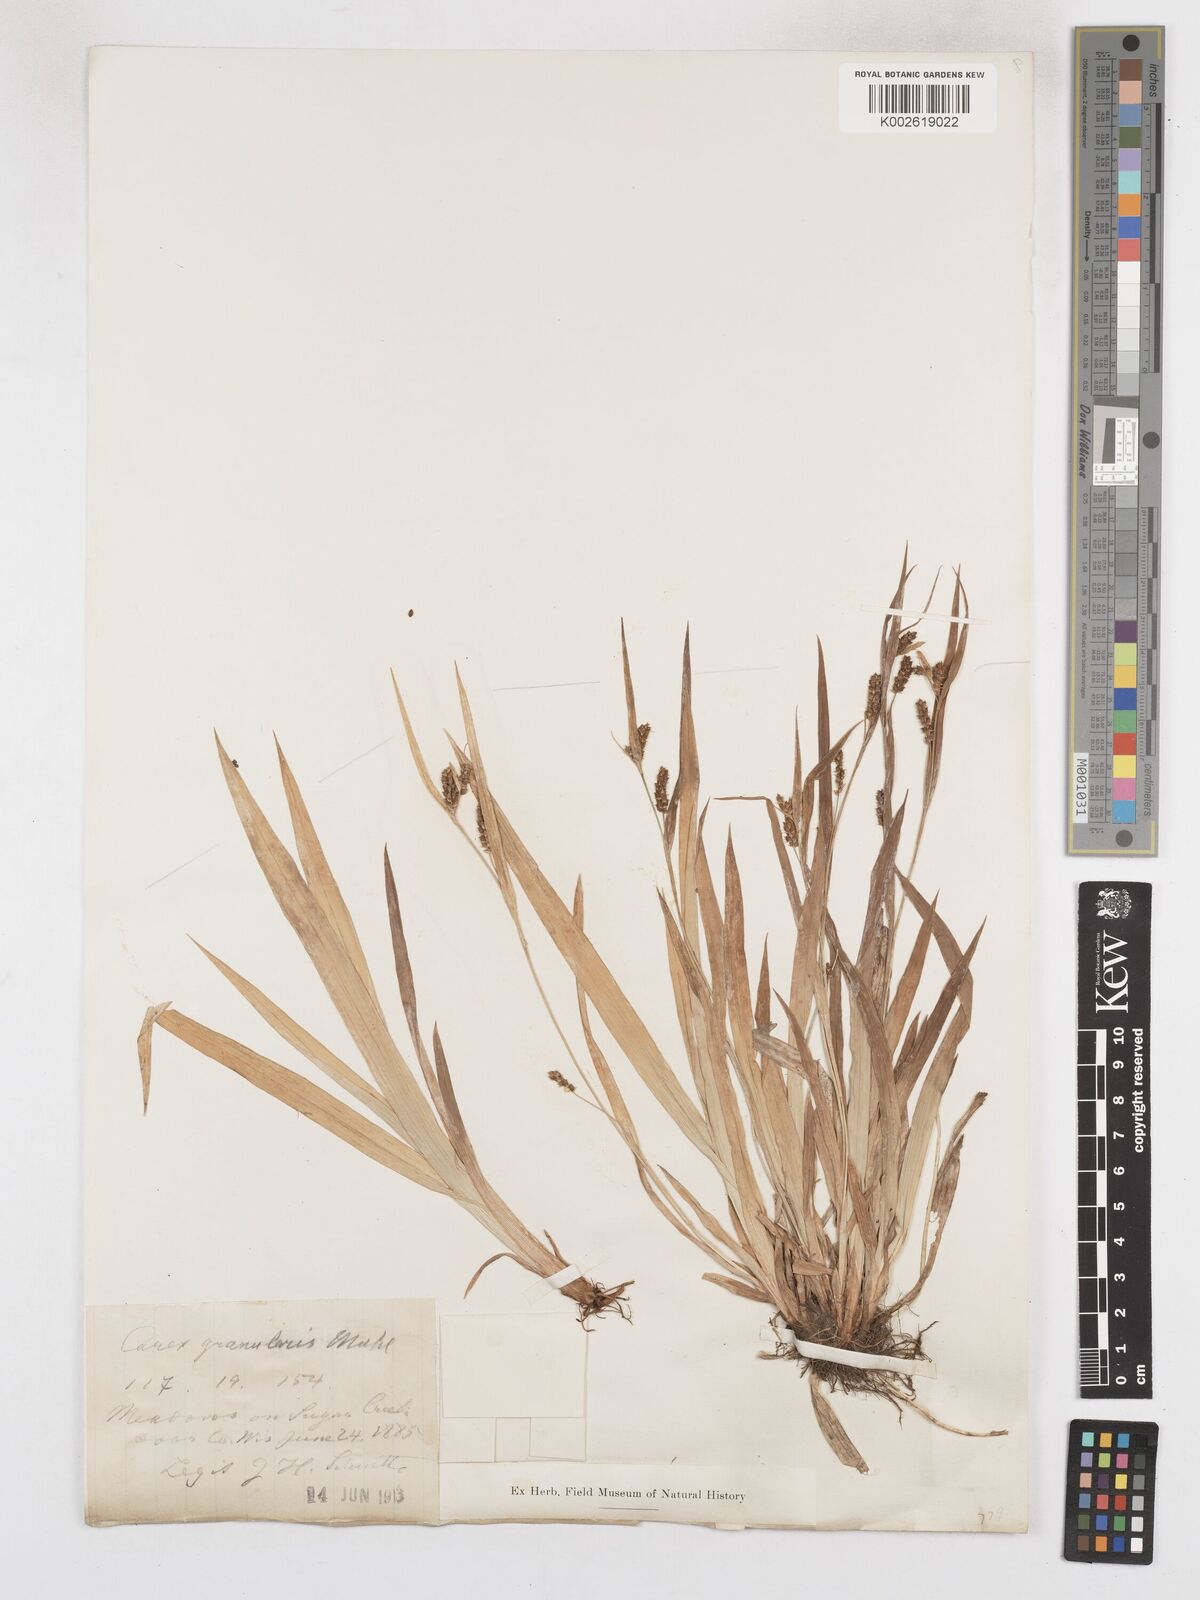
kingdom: Plantae
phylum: Tracheophyta
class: Liliopsida
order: Poales
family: Cyperaceae
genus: Carex
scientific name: Carex albursina
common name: Blunt-scale wood sedge
